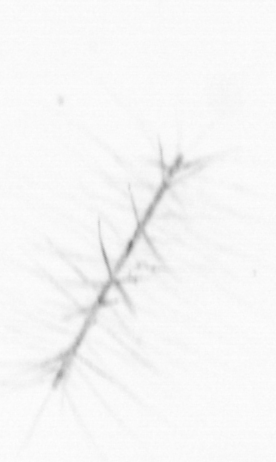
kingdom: Chromista
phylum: Ochrophyta
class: Bacillariophyceae
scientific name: Bacillariophyceae
